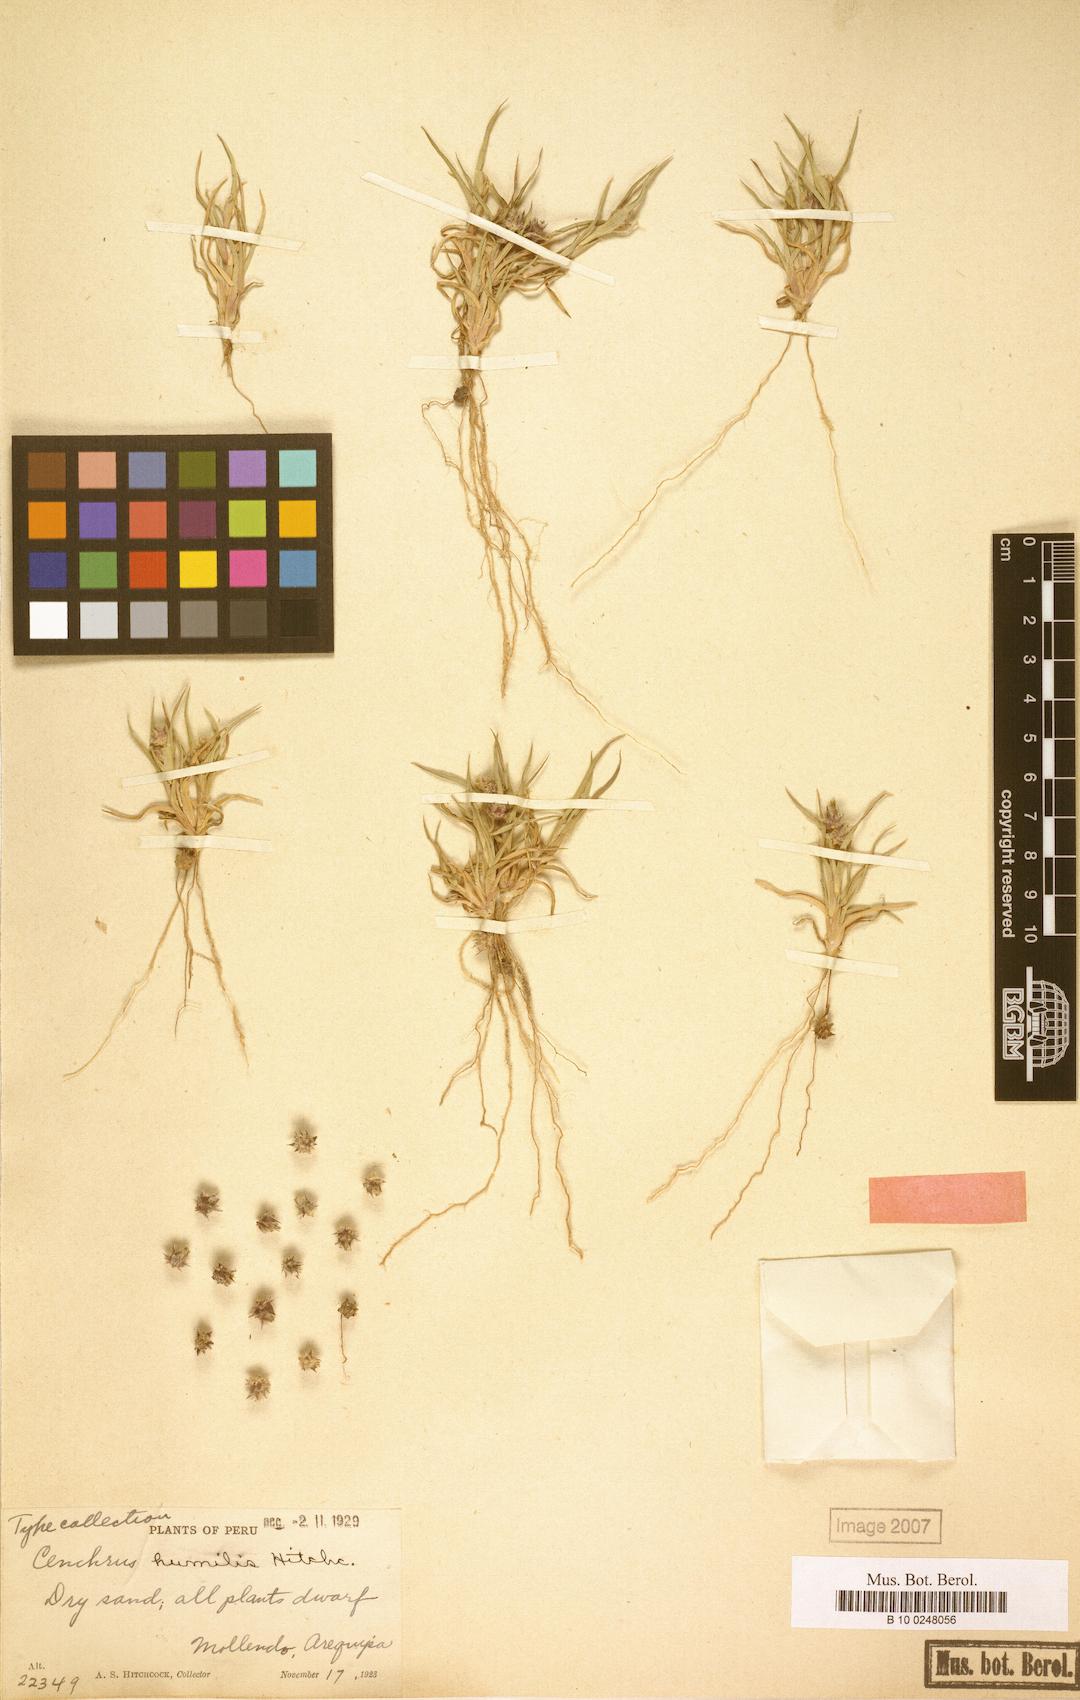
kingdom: Plantae
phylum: Tracheophyta
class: Liliopsida
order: Poales
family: Poaceae
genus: Cenchrus
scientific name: Cenchrus spinifex
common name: Coast sandbur
